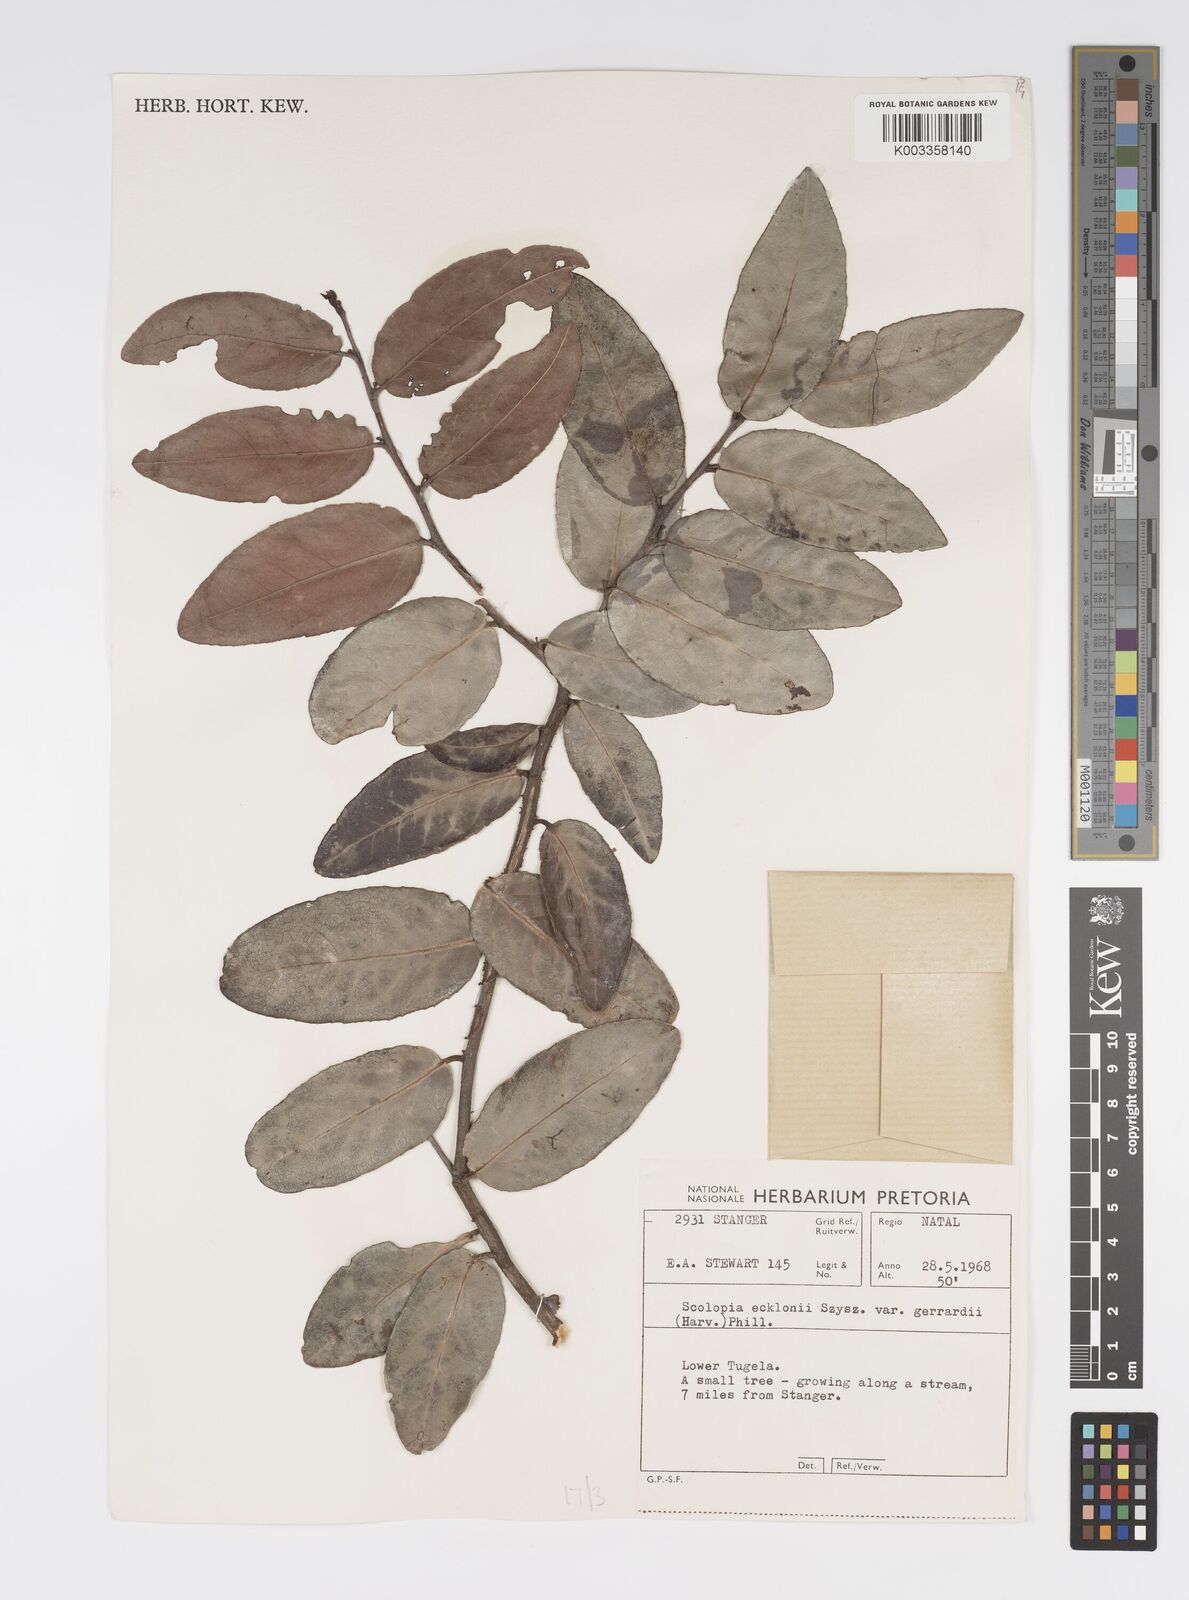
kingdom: Plantae
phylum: Tracheophyta
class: Magnoliopsida
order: Malpighiales
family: Salicaceae
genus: Scolopia
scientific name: Scolopia zeyheri
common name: Thorn pear
